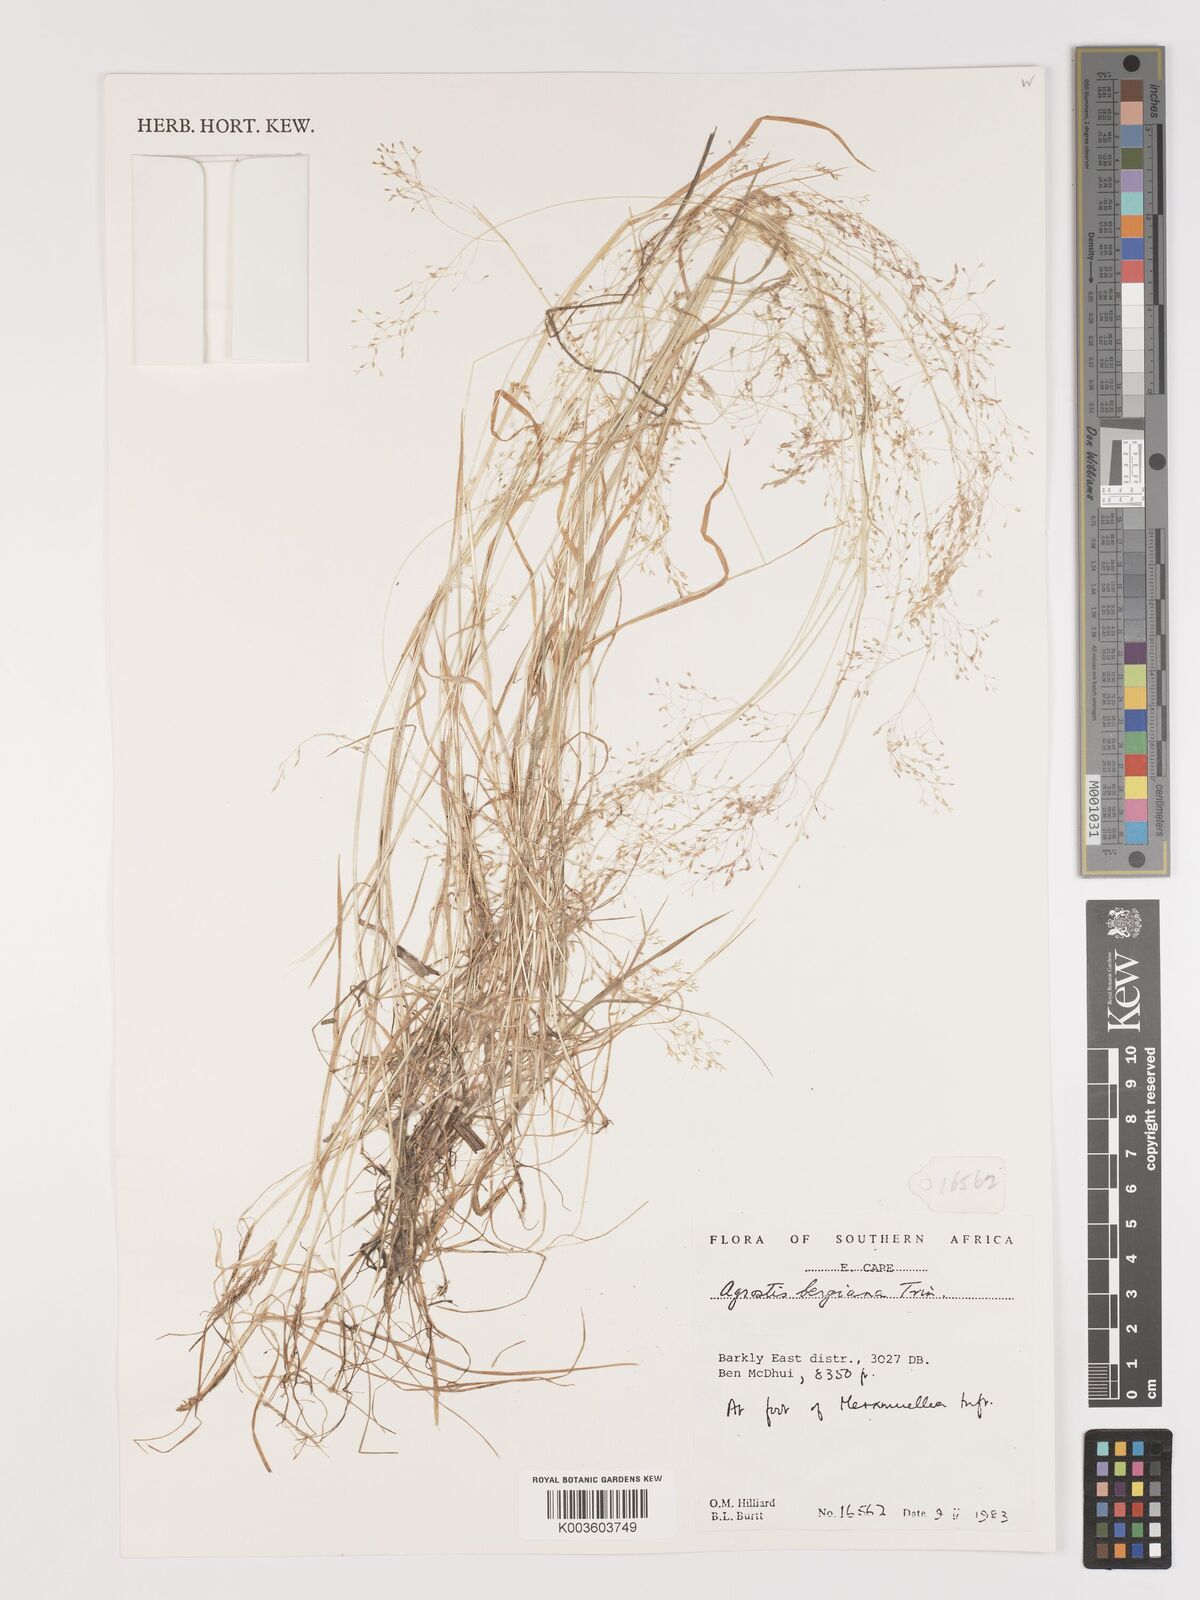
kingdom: Plantae
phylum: Tracheophyta
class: Liliopsida
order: Poales
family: Poaceae
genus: Agrostis
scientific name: Agrostis bergiana
